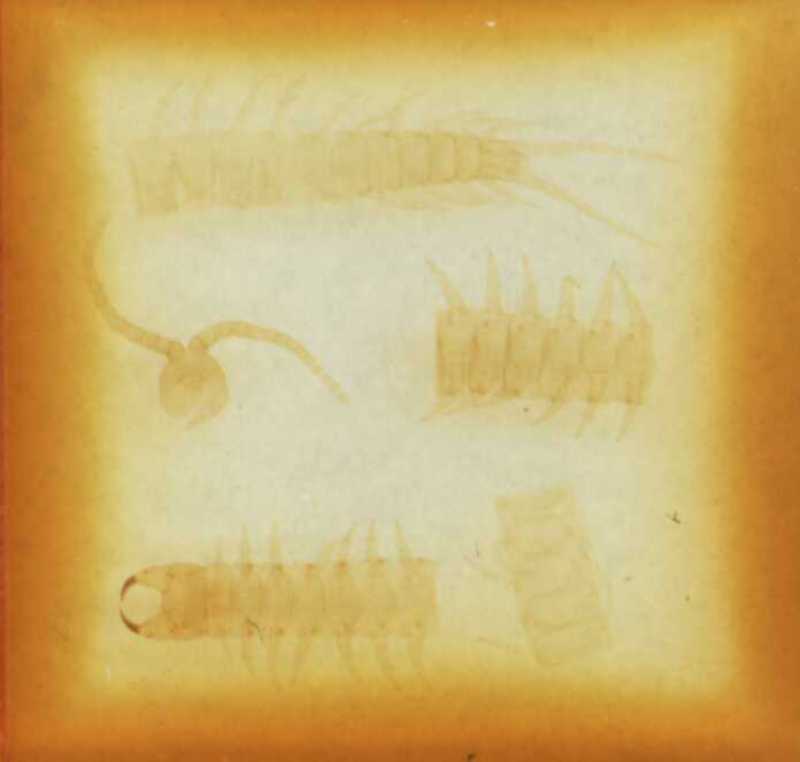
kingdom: Animalia
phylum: Arthropoda
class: Chilopoda
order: Geophilomorpha
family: Geophilidae
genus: Pleurogeophilus
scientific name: Pleurogeophilus mediterraneus
